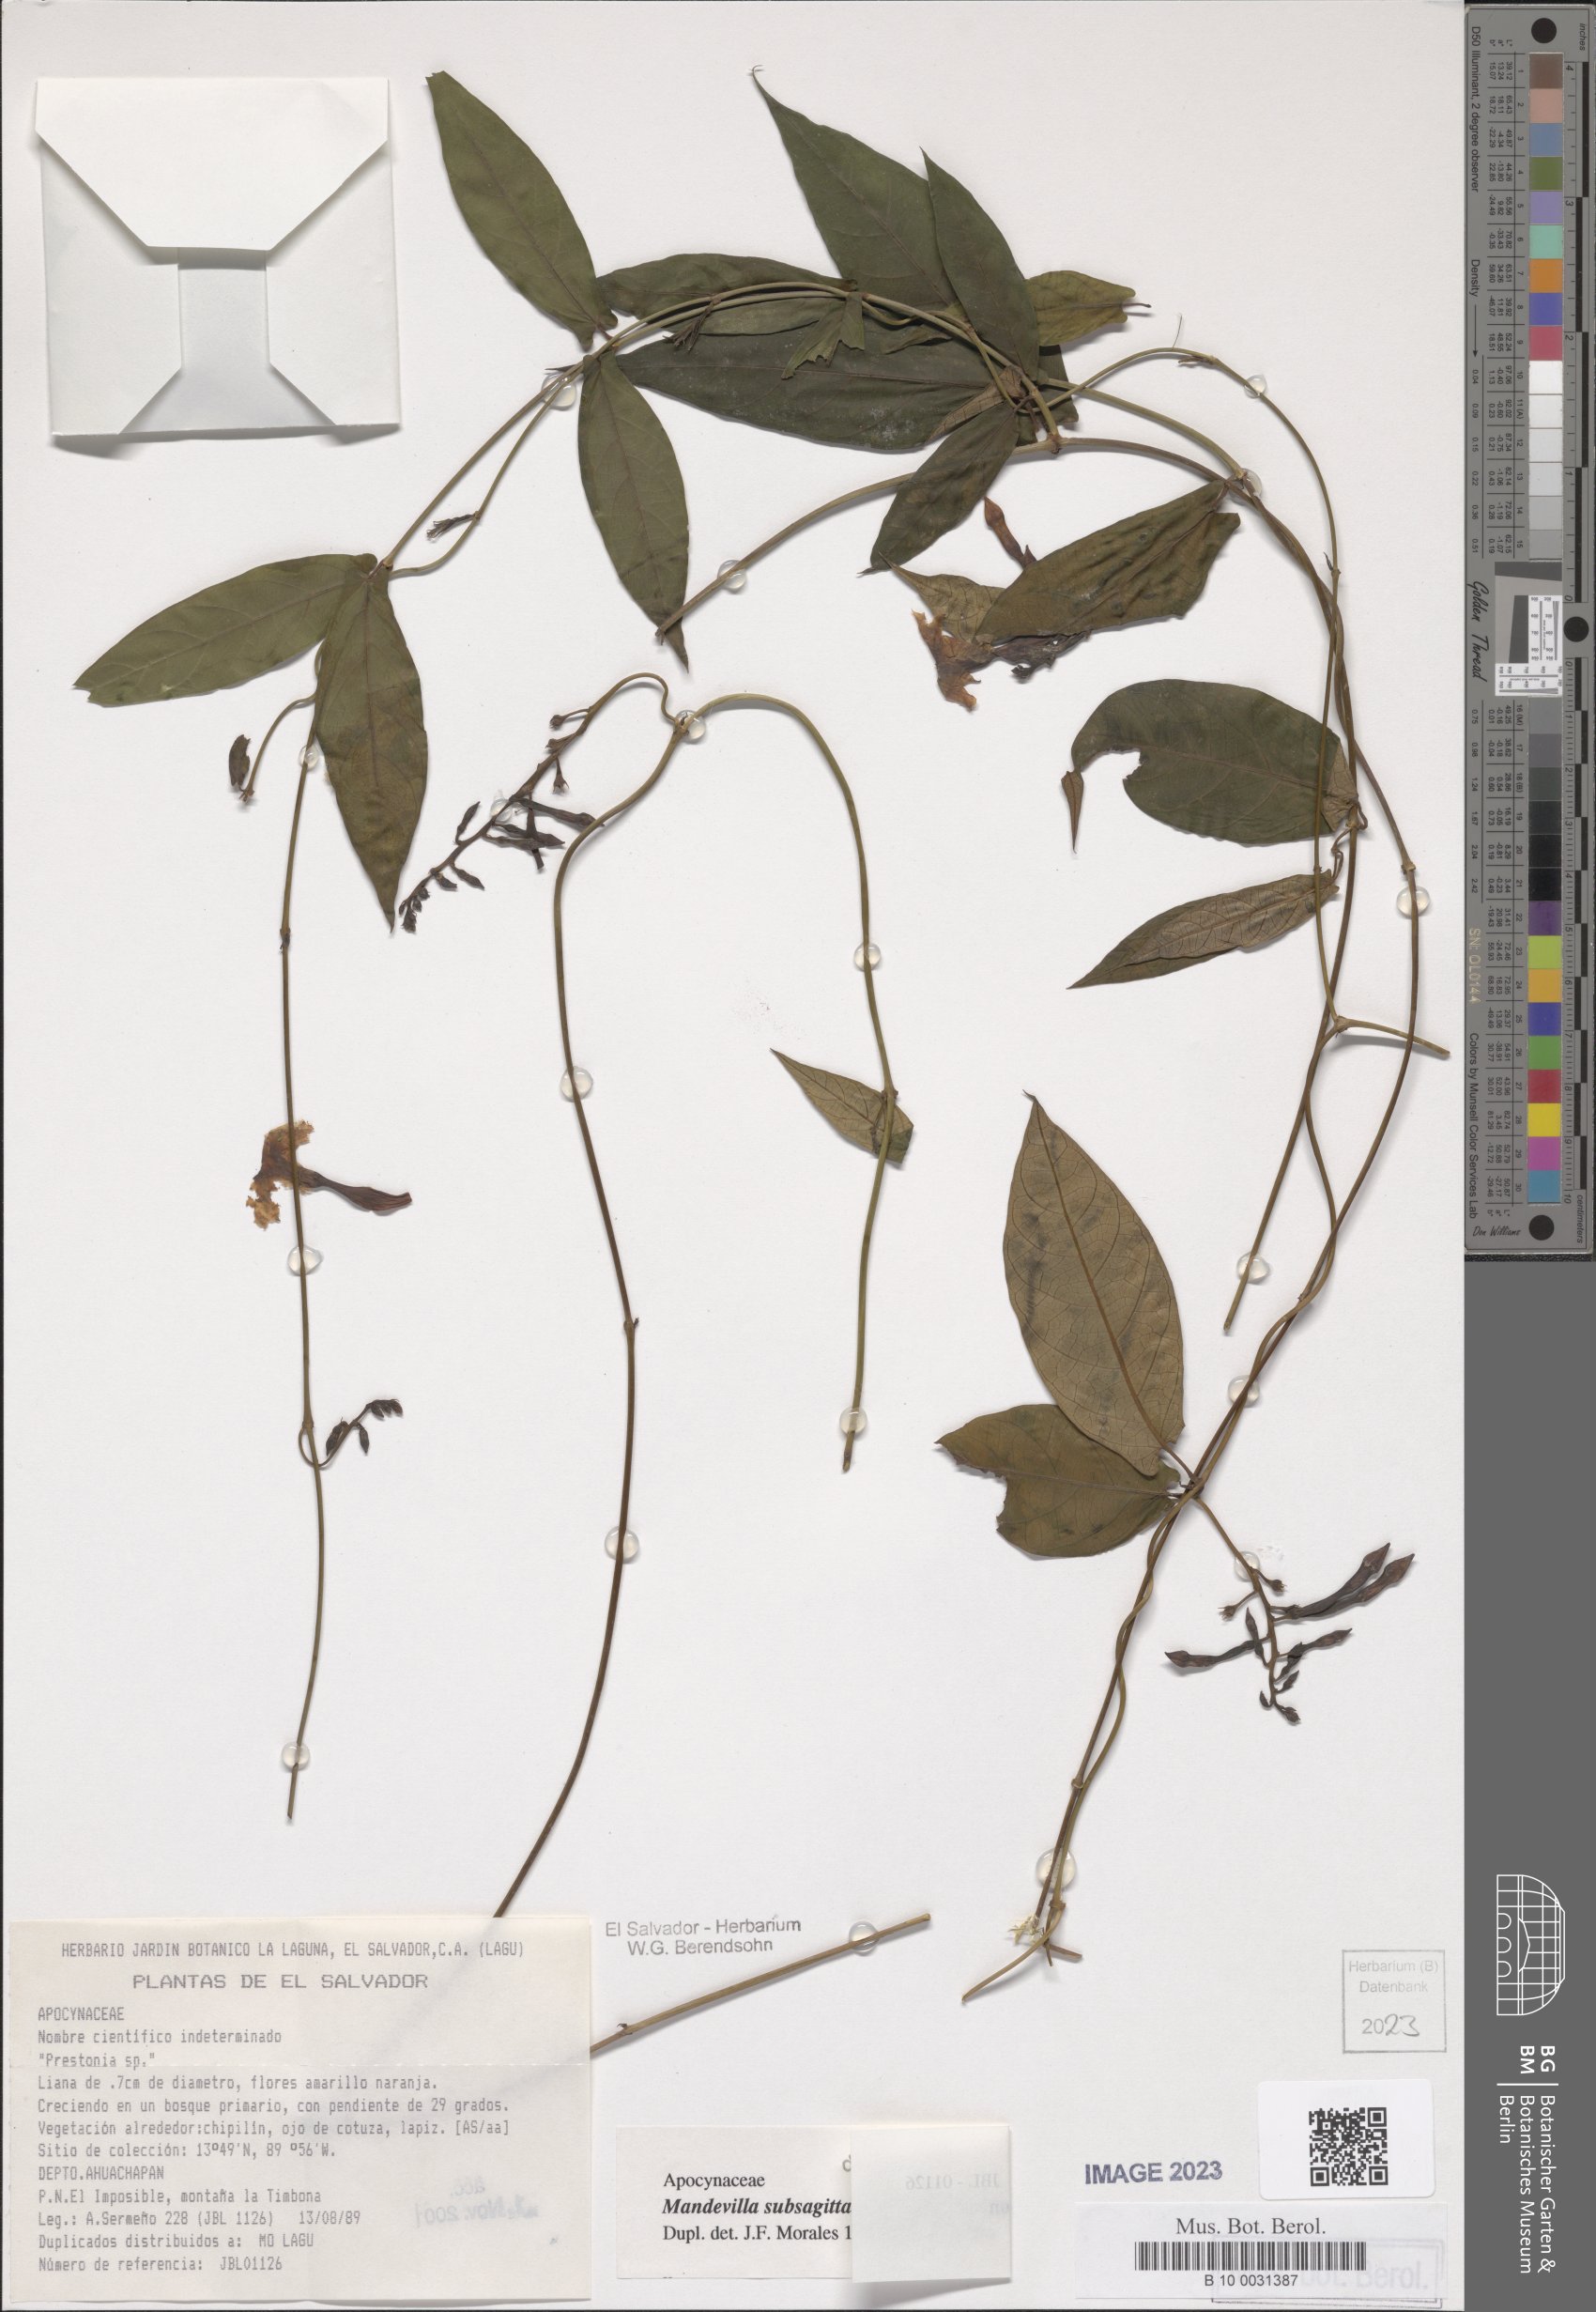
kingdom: Plantae
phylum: Tracheophyta
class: Magnoliopsida
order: Gentianales
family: Apocynaceae
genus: Mandevilla
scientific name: Mandevilla subsagittata
